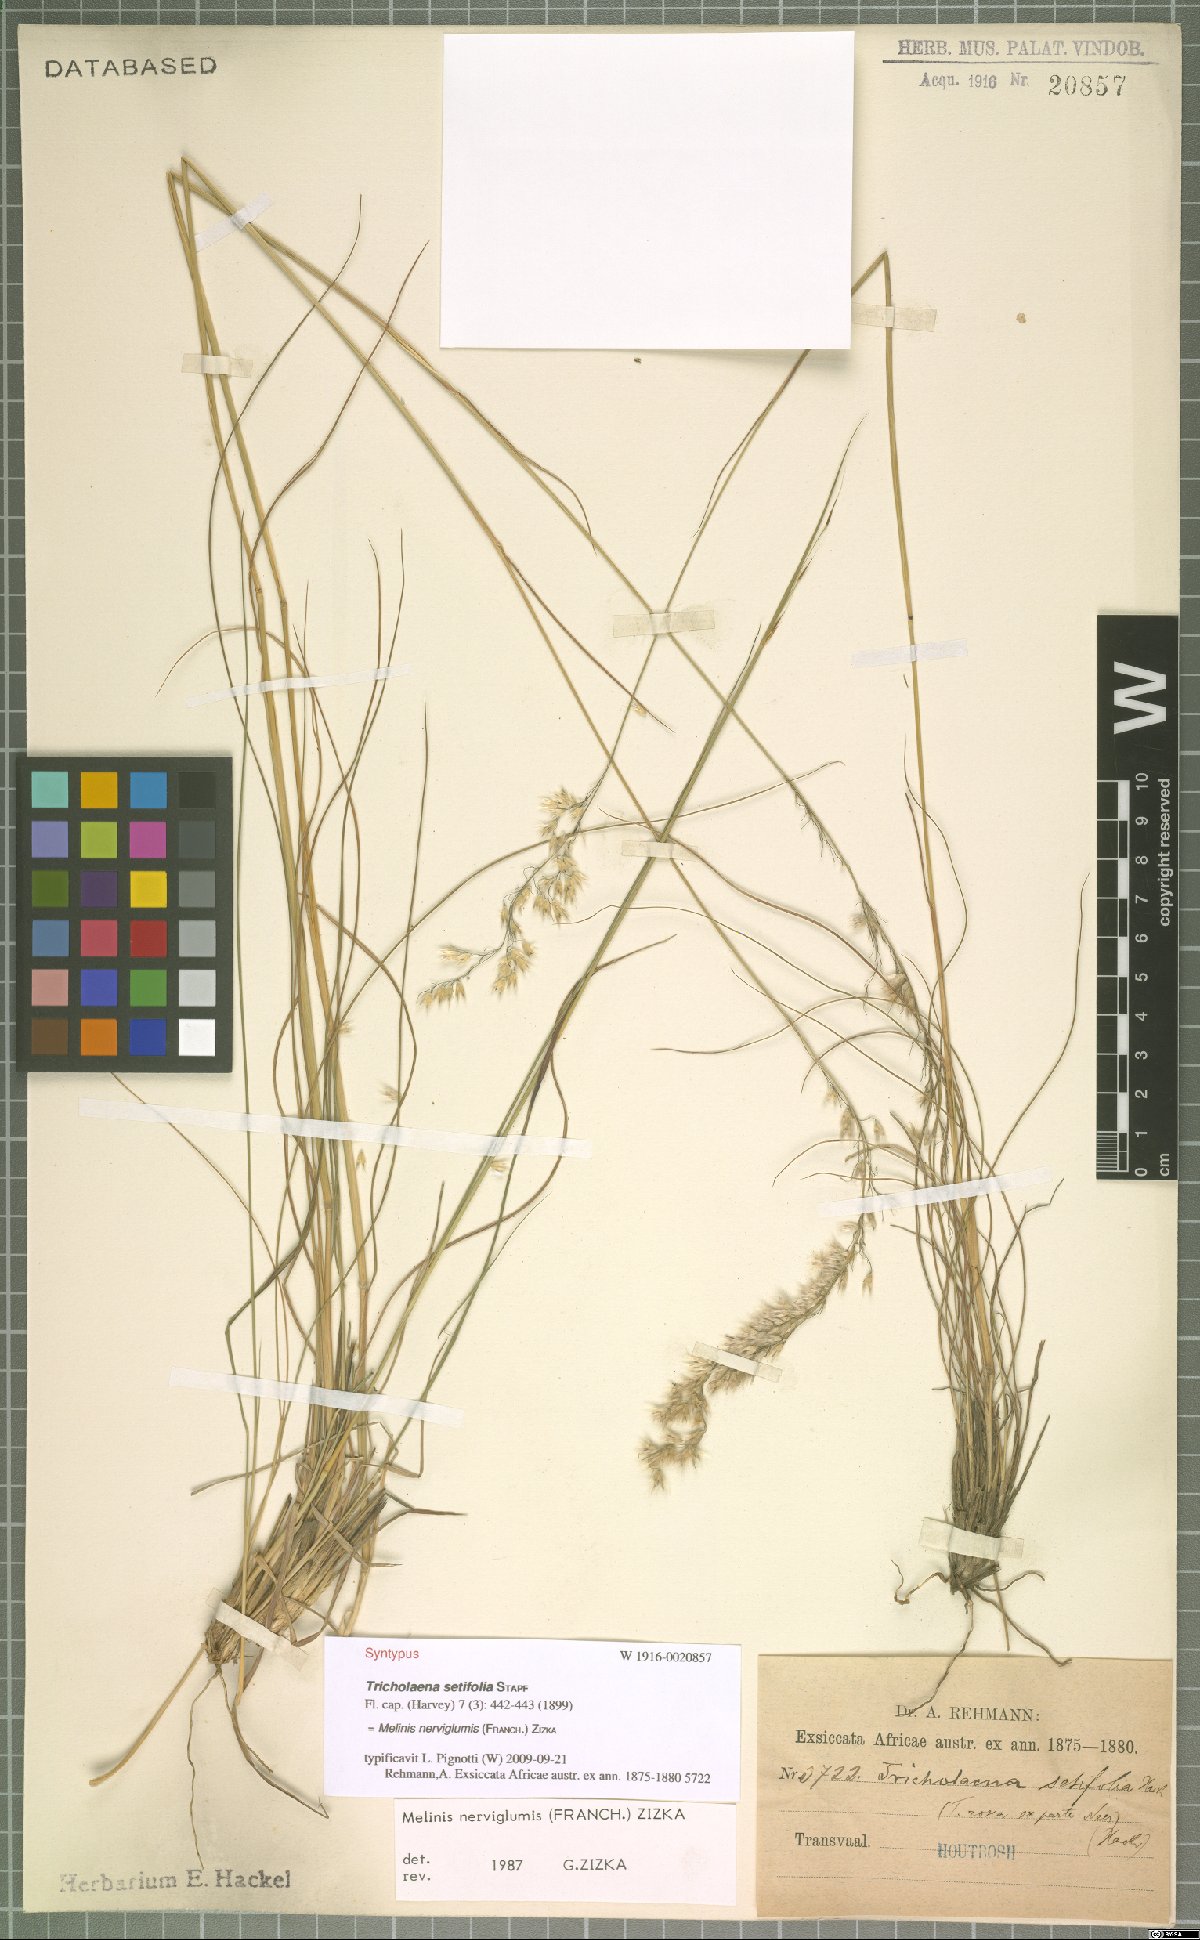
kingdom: Plantae
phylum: Tracheophyta
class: Liliopsida
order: Poales
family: Poaceae
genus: Melinis
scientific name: Melinis nerviglumis
